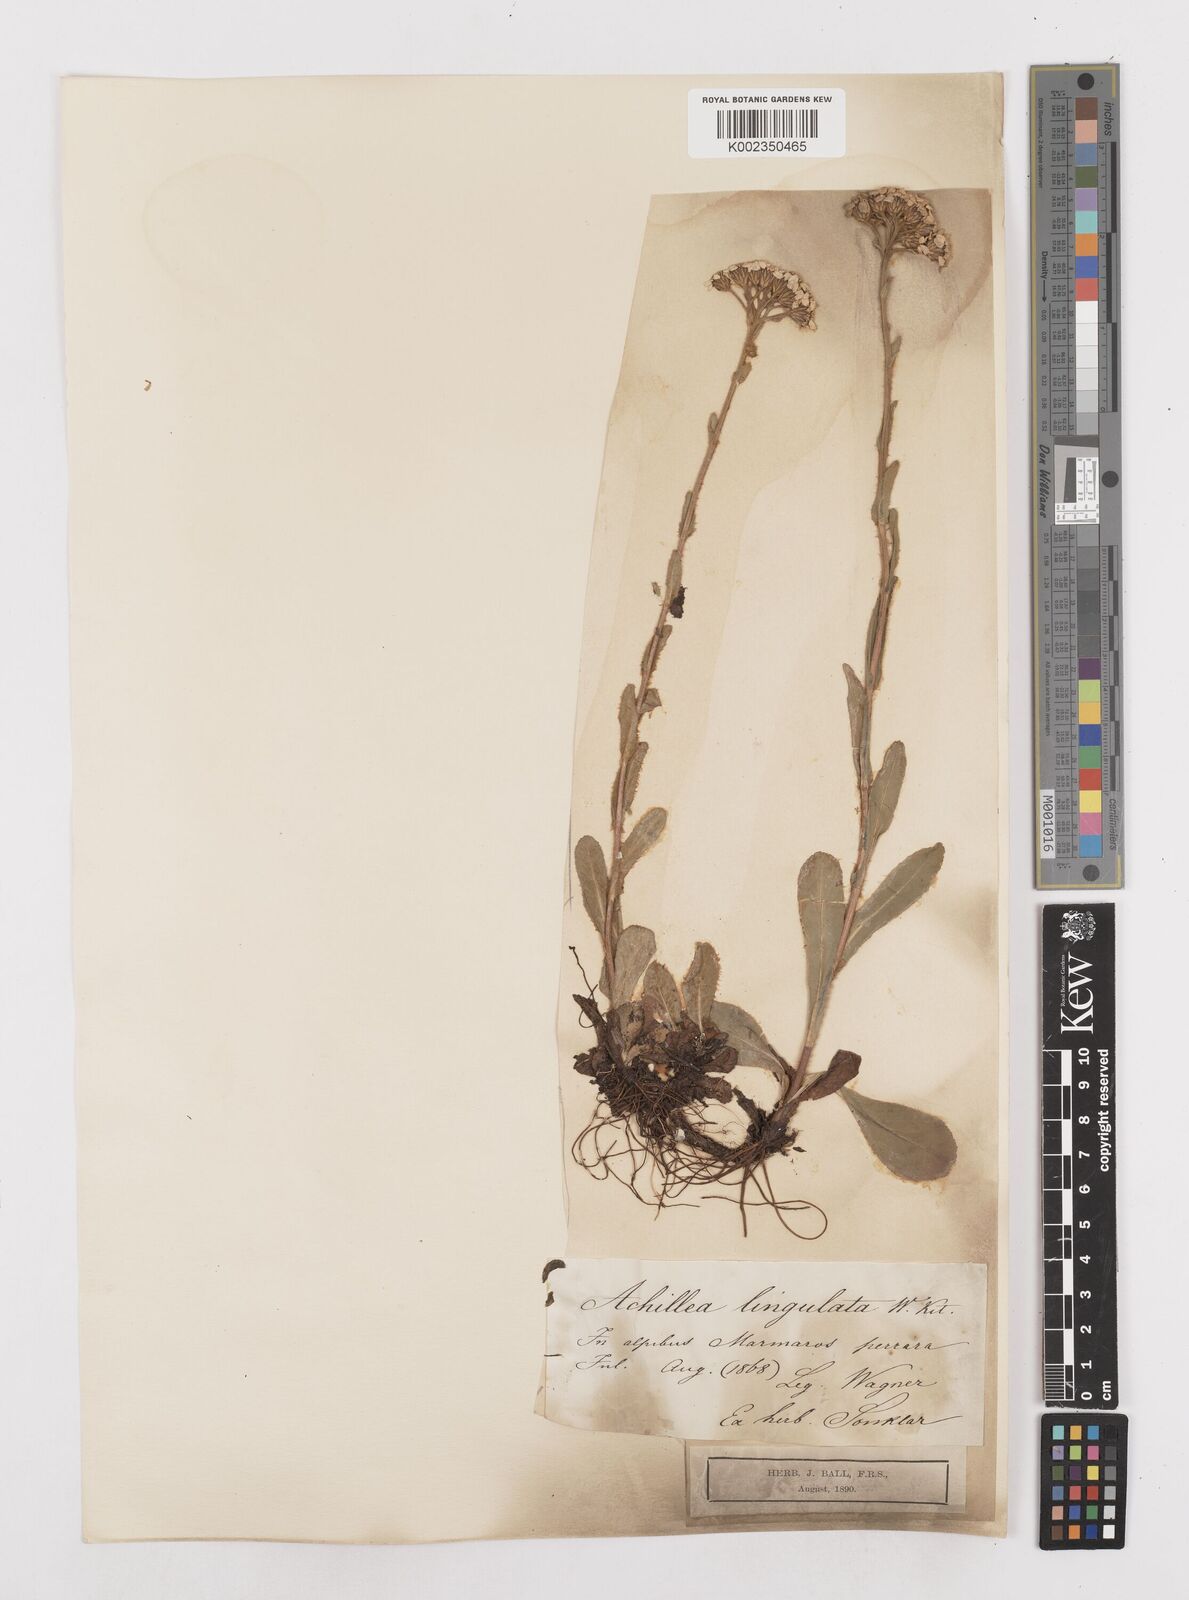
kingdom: Plantae
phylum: Tracheophyta
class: Magnoliopsida
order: Asterales
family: Asteraceae
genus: Achillea
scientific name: Achillea lingulata
